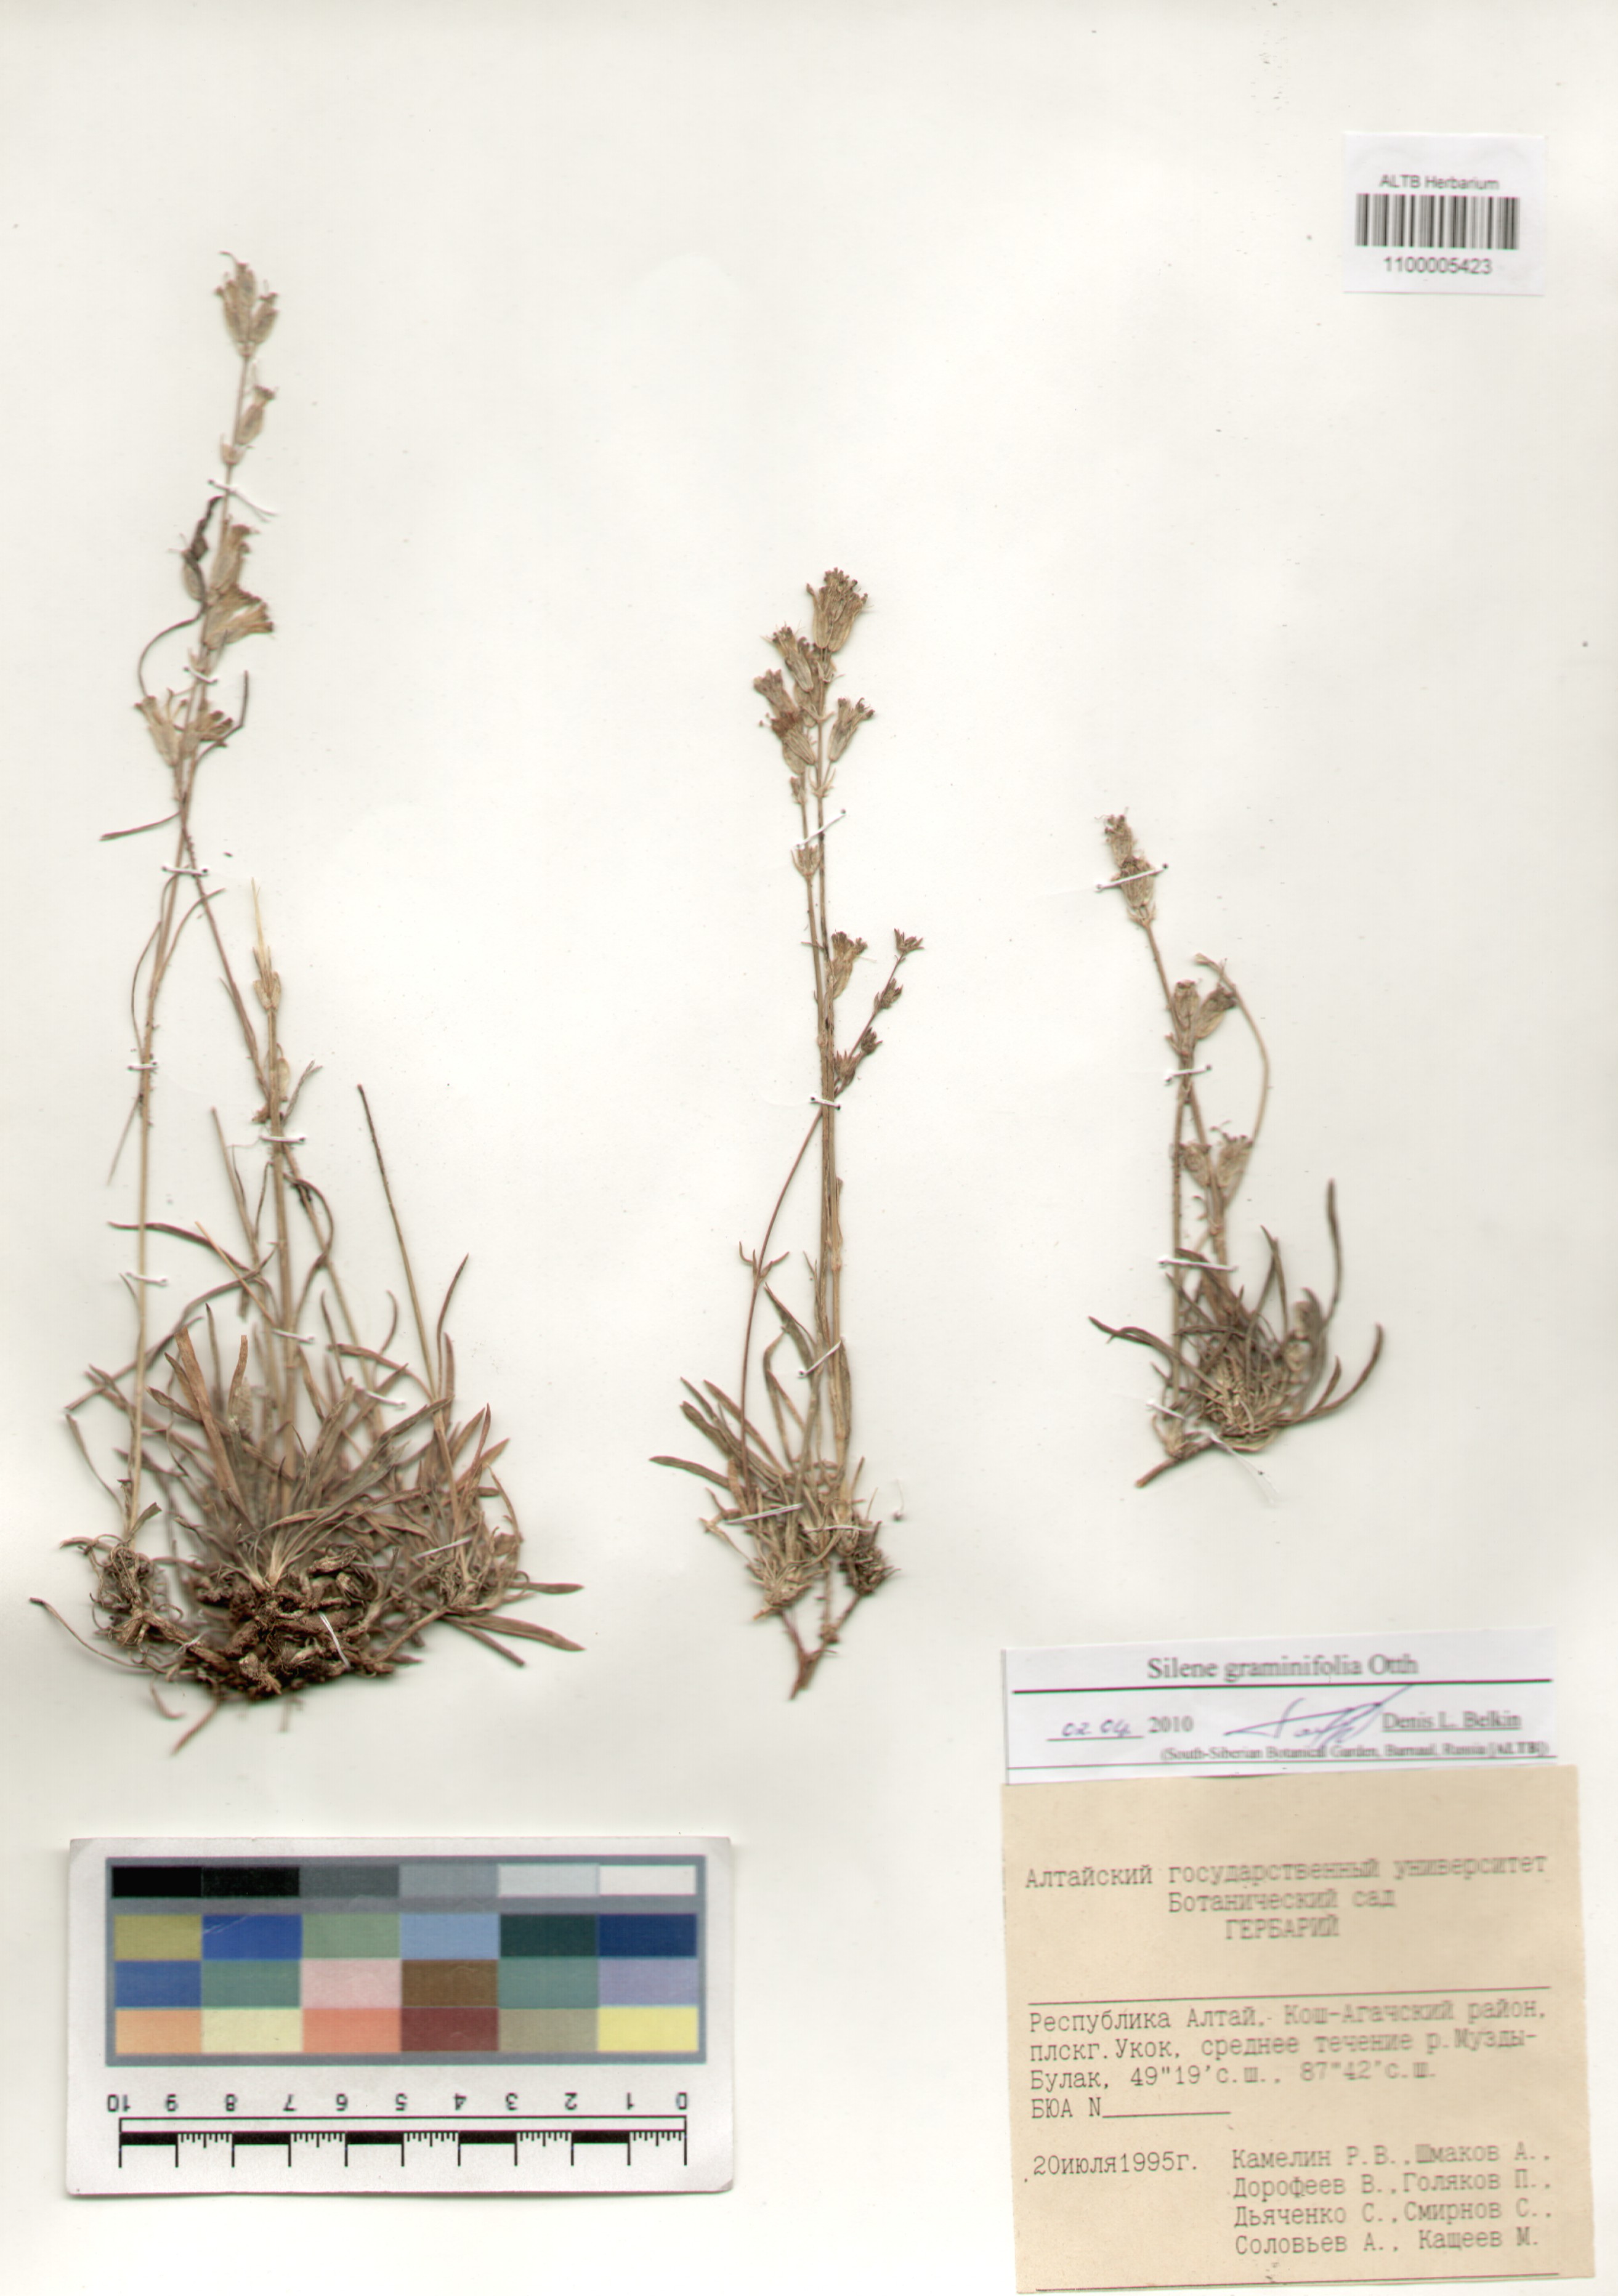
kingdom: Plantae
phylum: Tracheophyta
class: Magnoliopsida
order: Caryophyllales
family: Caryophyllaceae
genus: Silene
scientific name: Silene graminifolia
